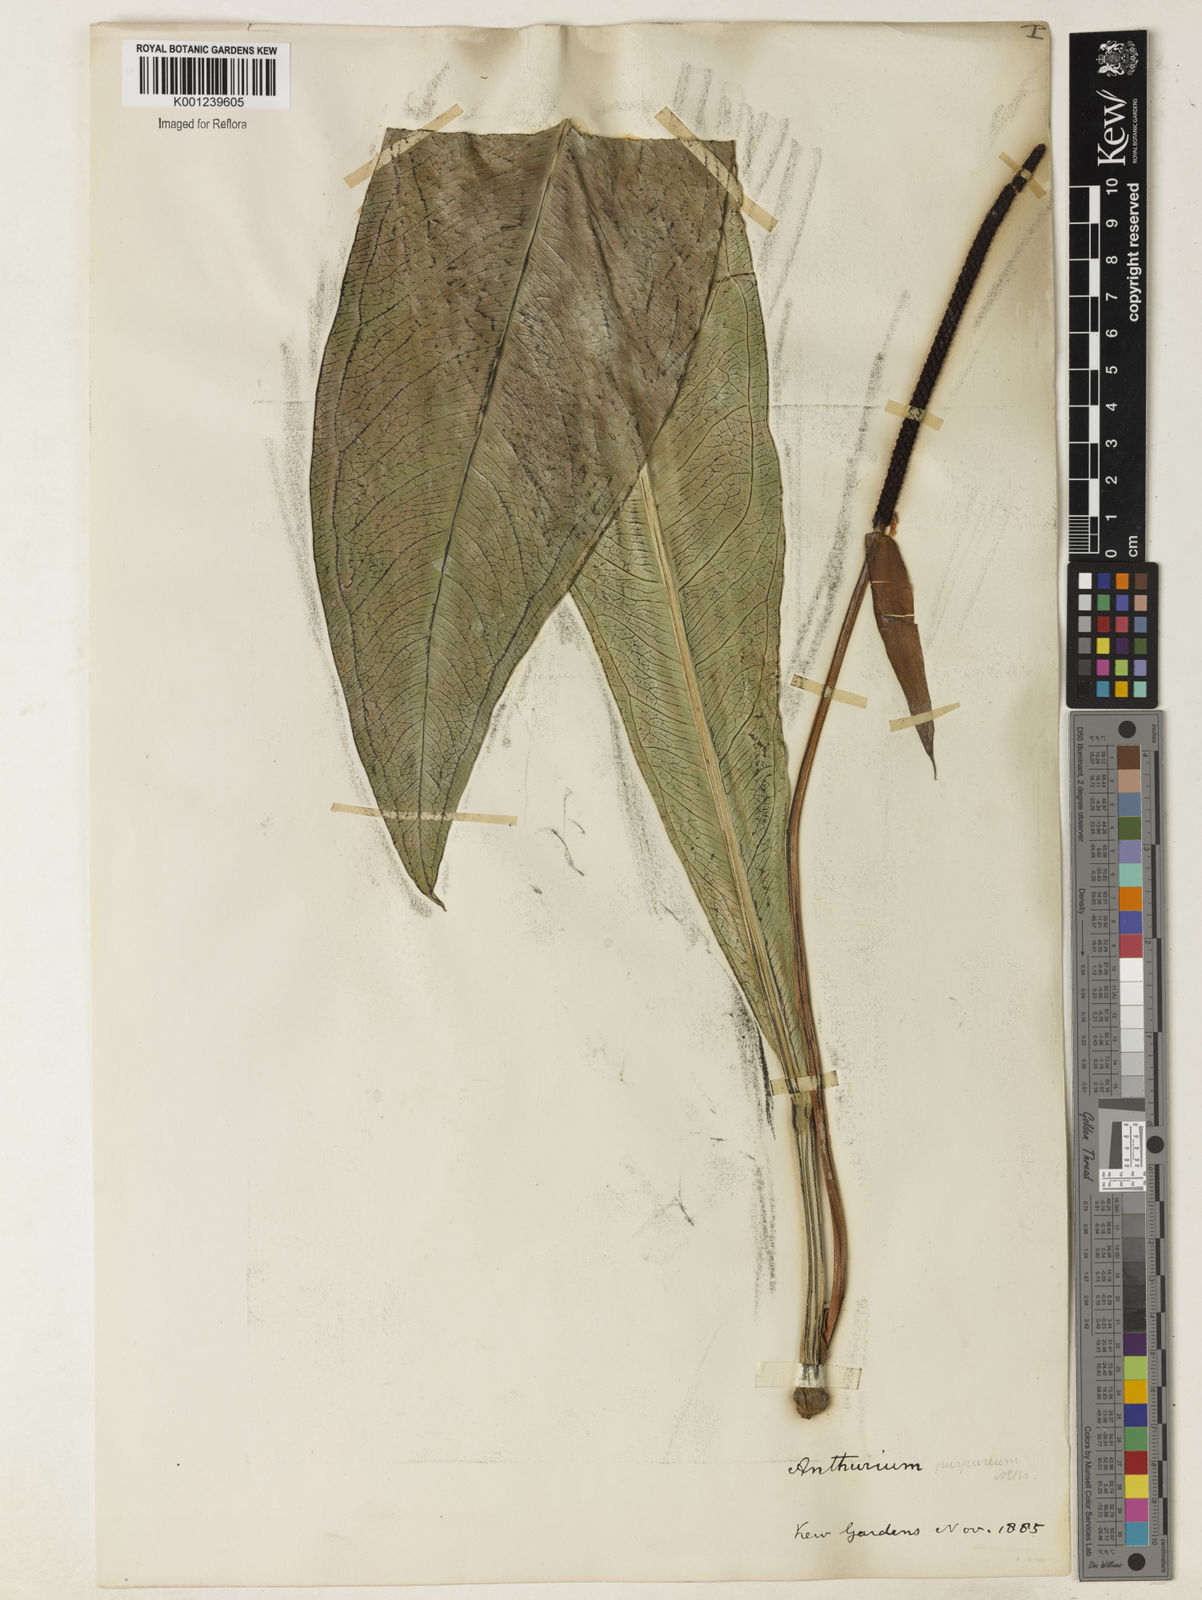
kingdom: Plantae
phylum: Tracheophyta
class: Liliopsida
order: Alismatales
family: Araceae
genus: Anthurium
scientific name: Anthurium purpureum
